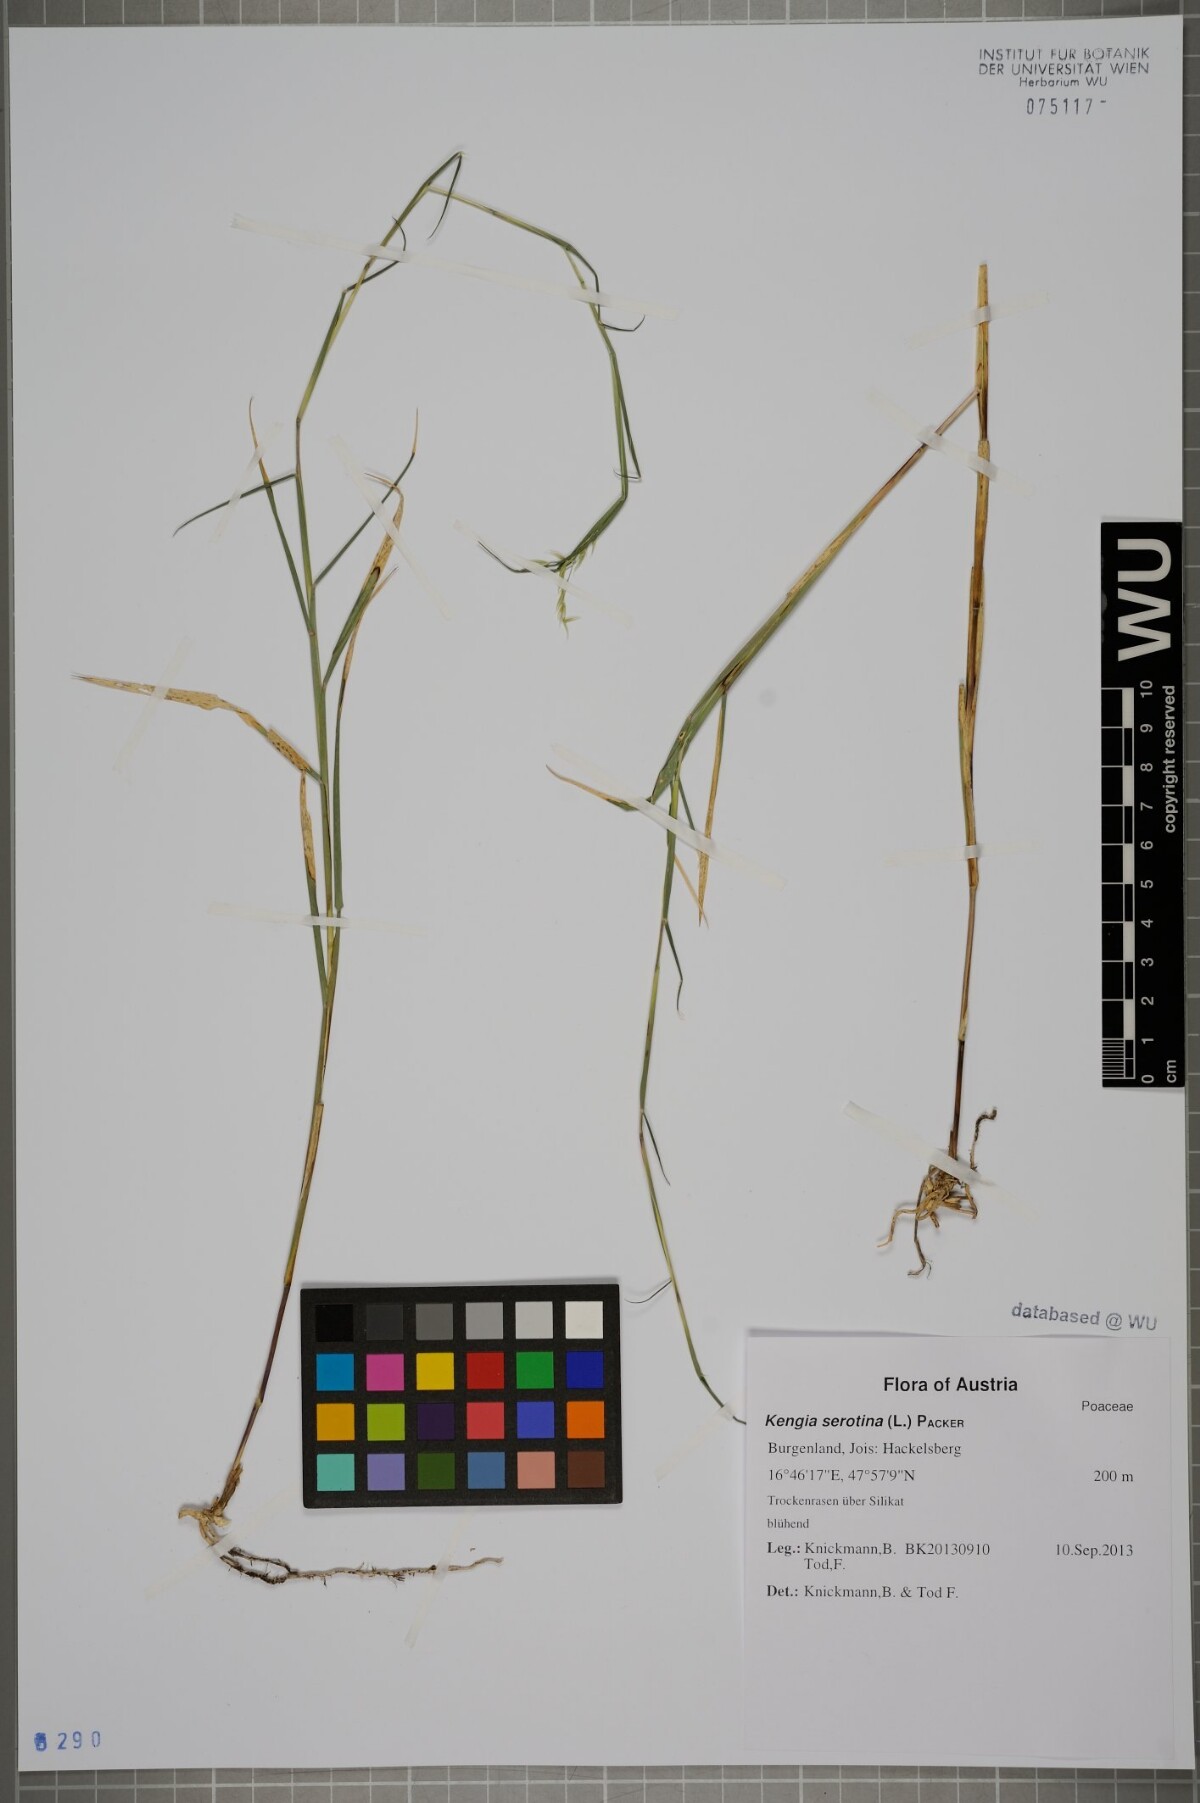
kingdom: Plantae
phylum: Tracheophyta
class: Liliopsida
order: Poales
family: Poaceae
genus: Cleistogenes
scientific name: Cleistogenes serotina
